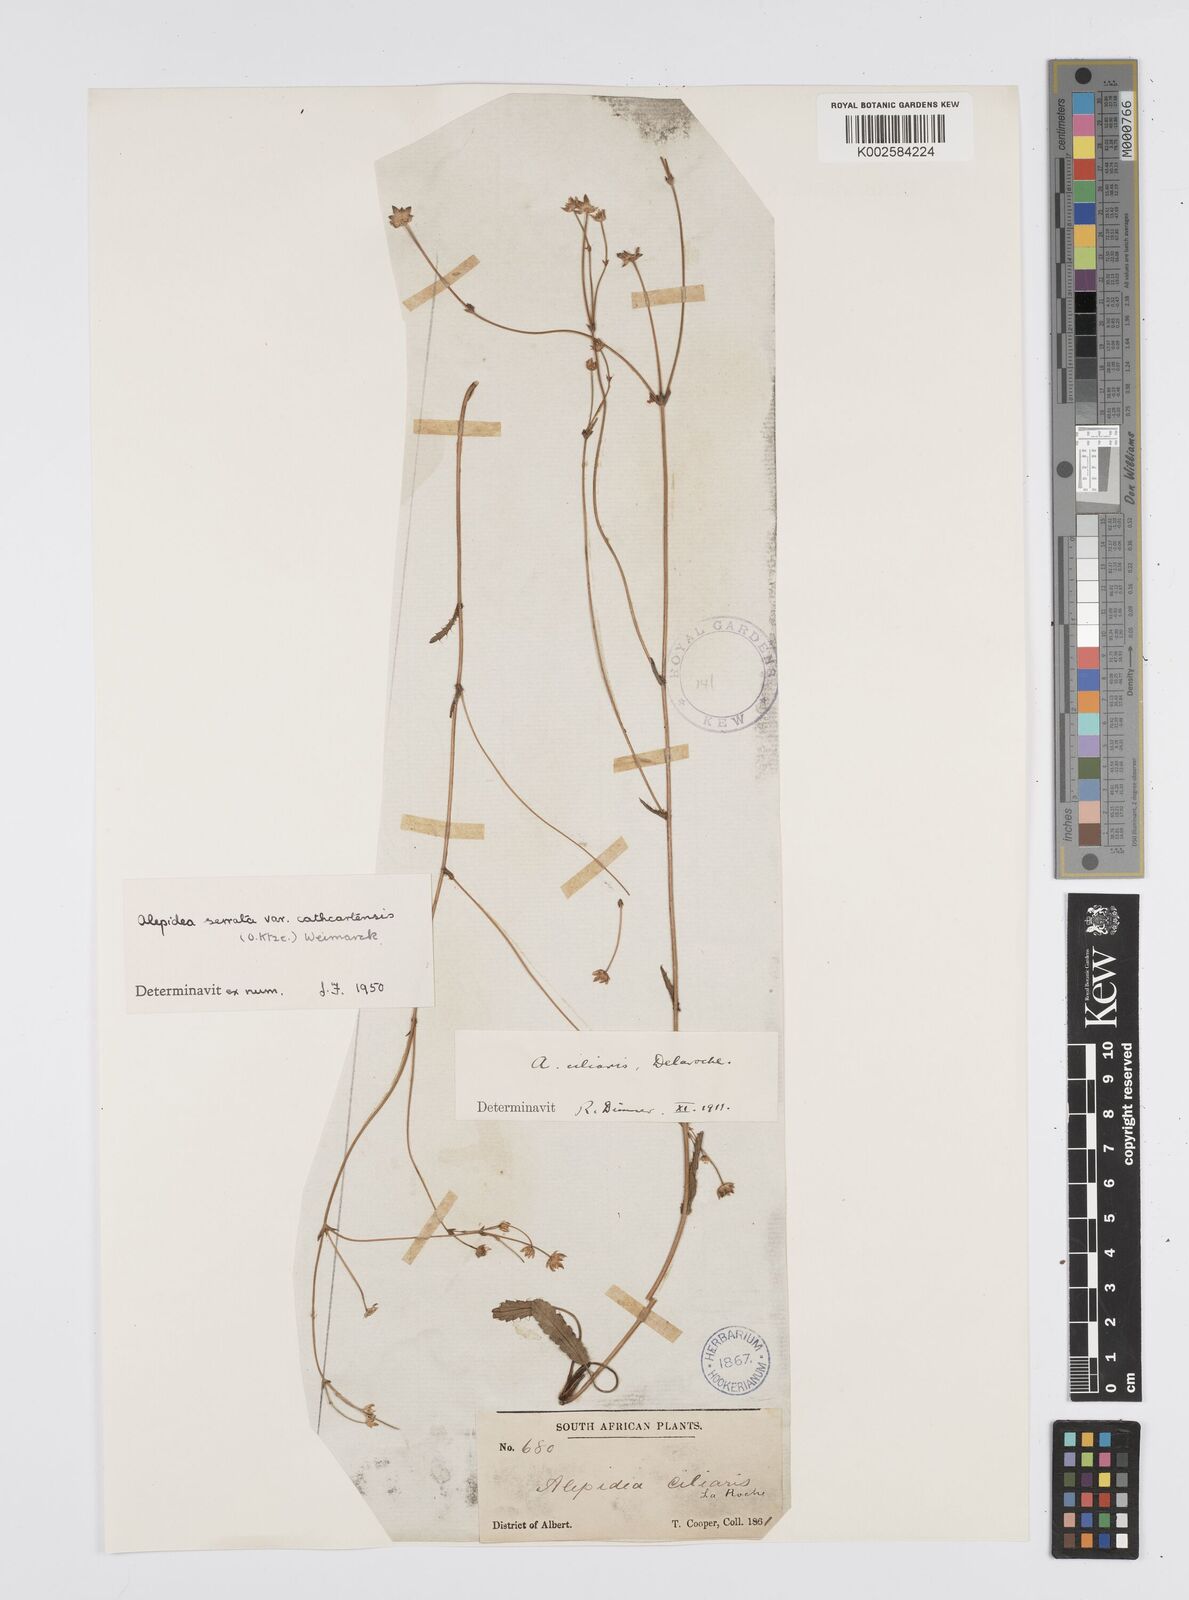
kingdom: Plantae
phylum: Tracheophyta
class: Magnoliopsida
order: Apiales
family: Apiaceae
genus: Alepidea
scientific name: Alepidea serrata
